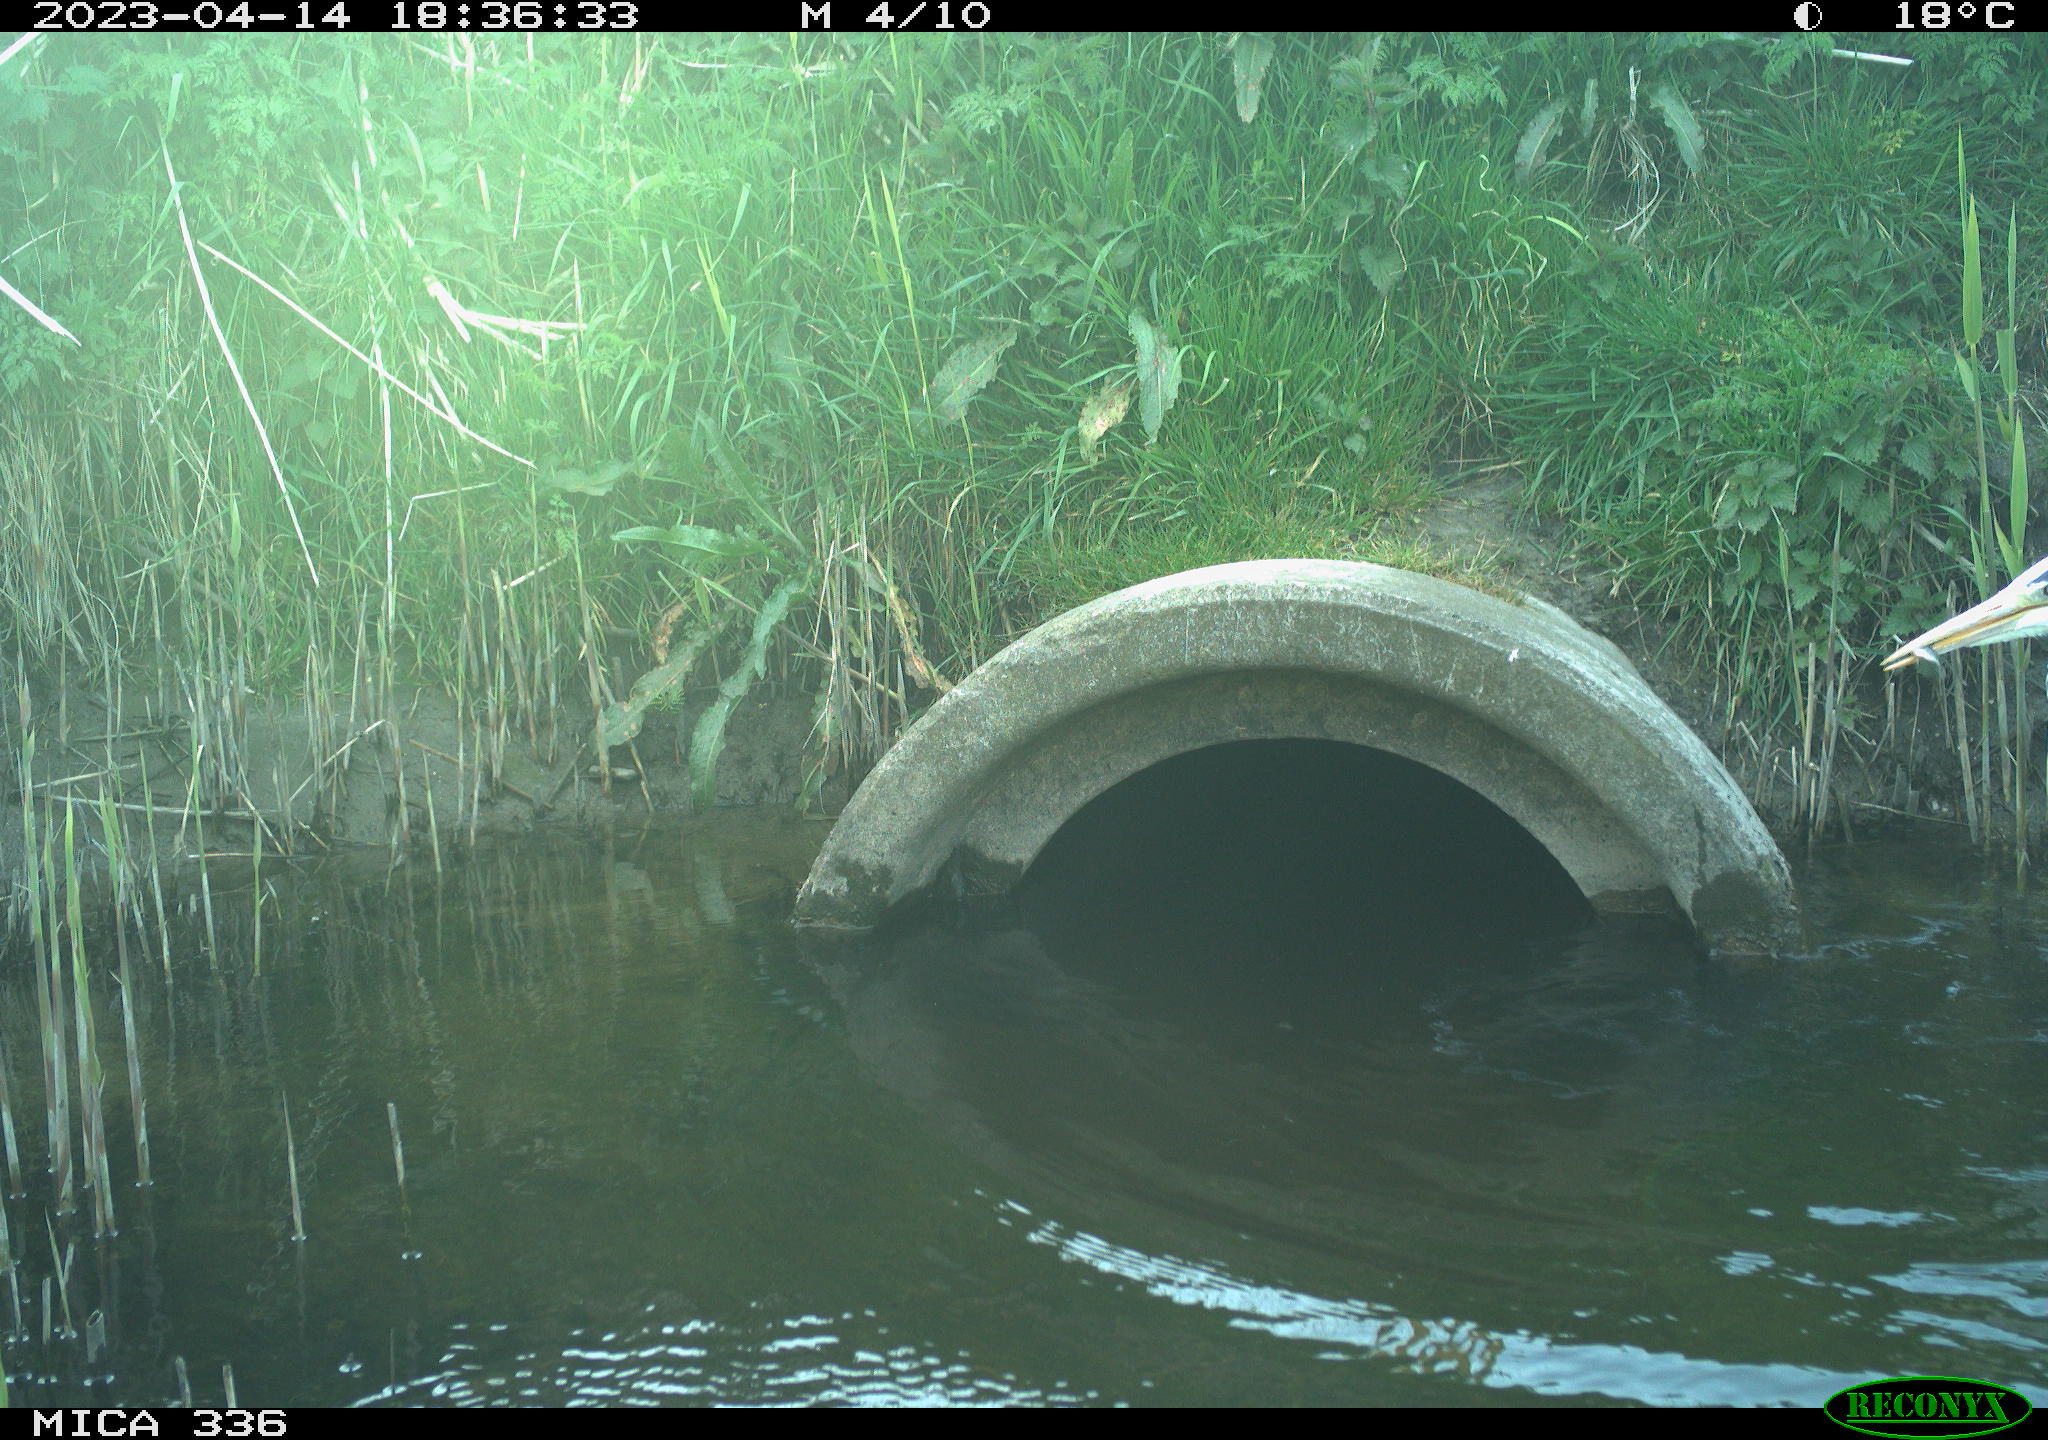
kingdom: Animalia
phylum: Chordata
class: Aves
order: Anseriformes
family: Anatidae
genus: Anas
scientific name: Anas platyrhynchos
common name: Mallard
